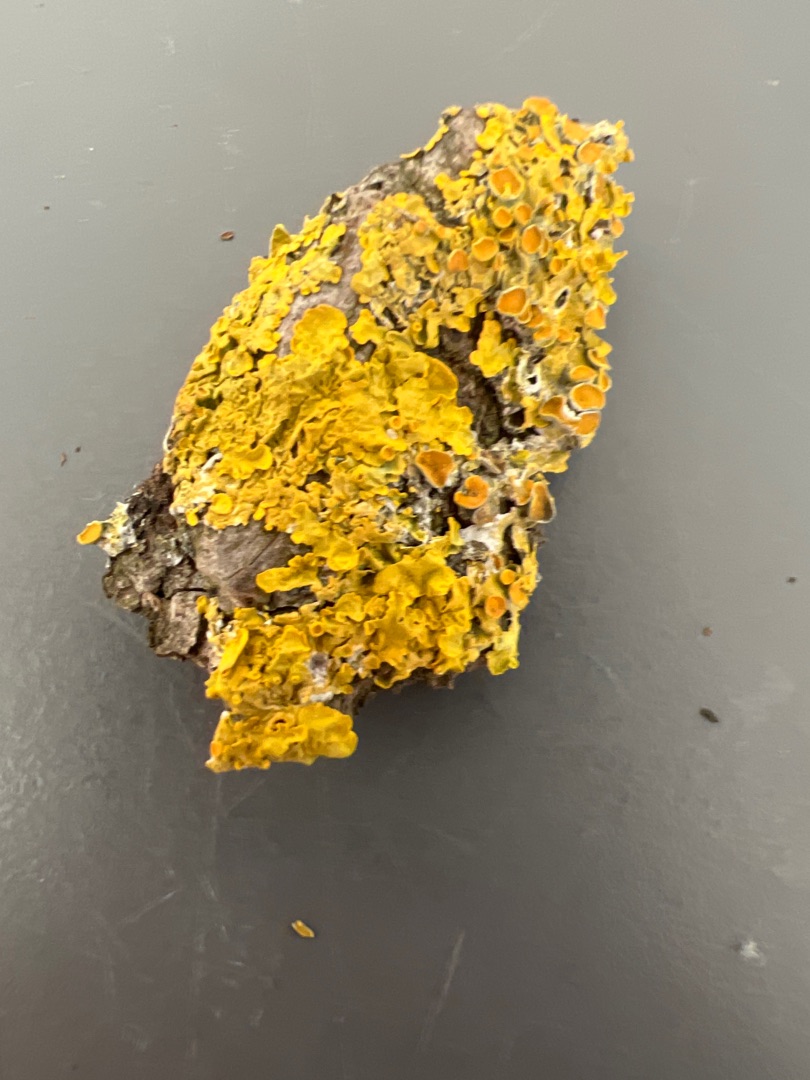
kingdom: Fungi
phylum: Ascomycota
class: Lecanoromycetes
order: Teloschistales
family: Teloschistaceae
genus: Xanthoria
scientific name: Xanthoria parietina
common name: Almindelig væggelav
